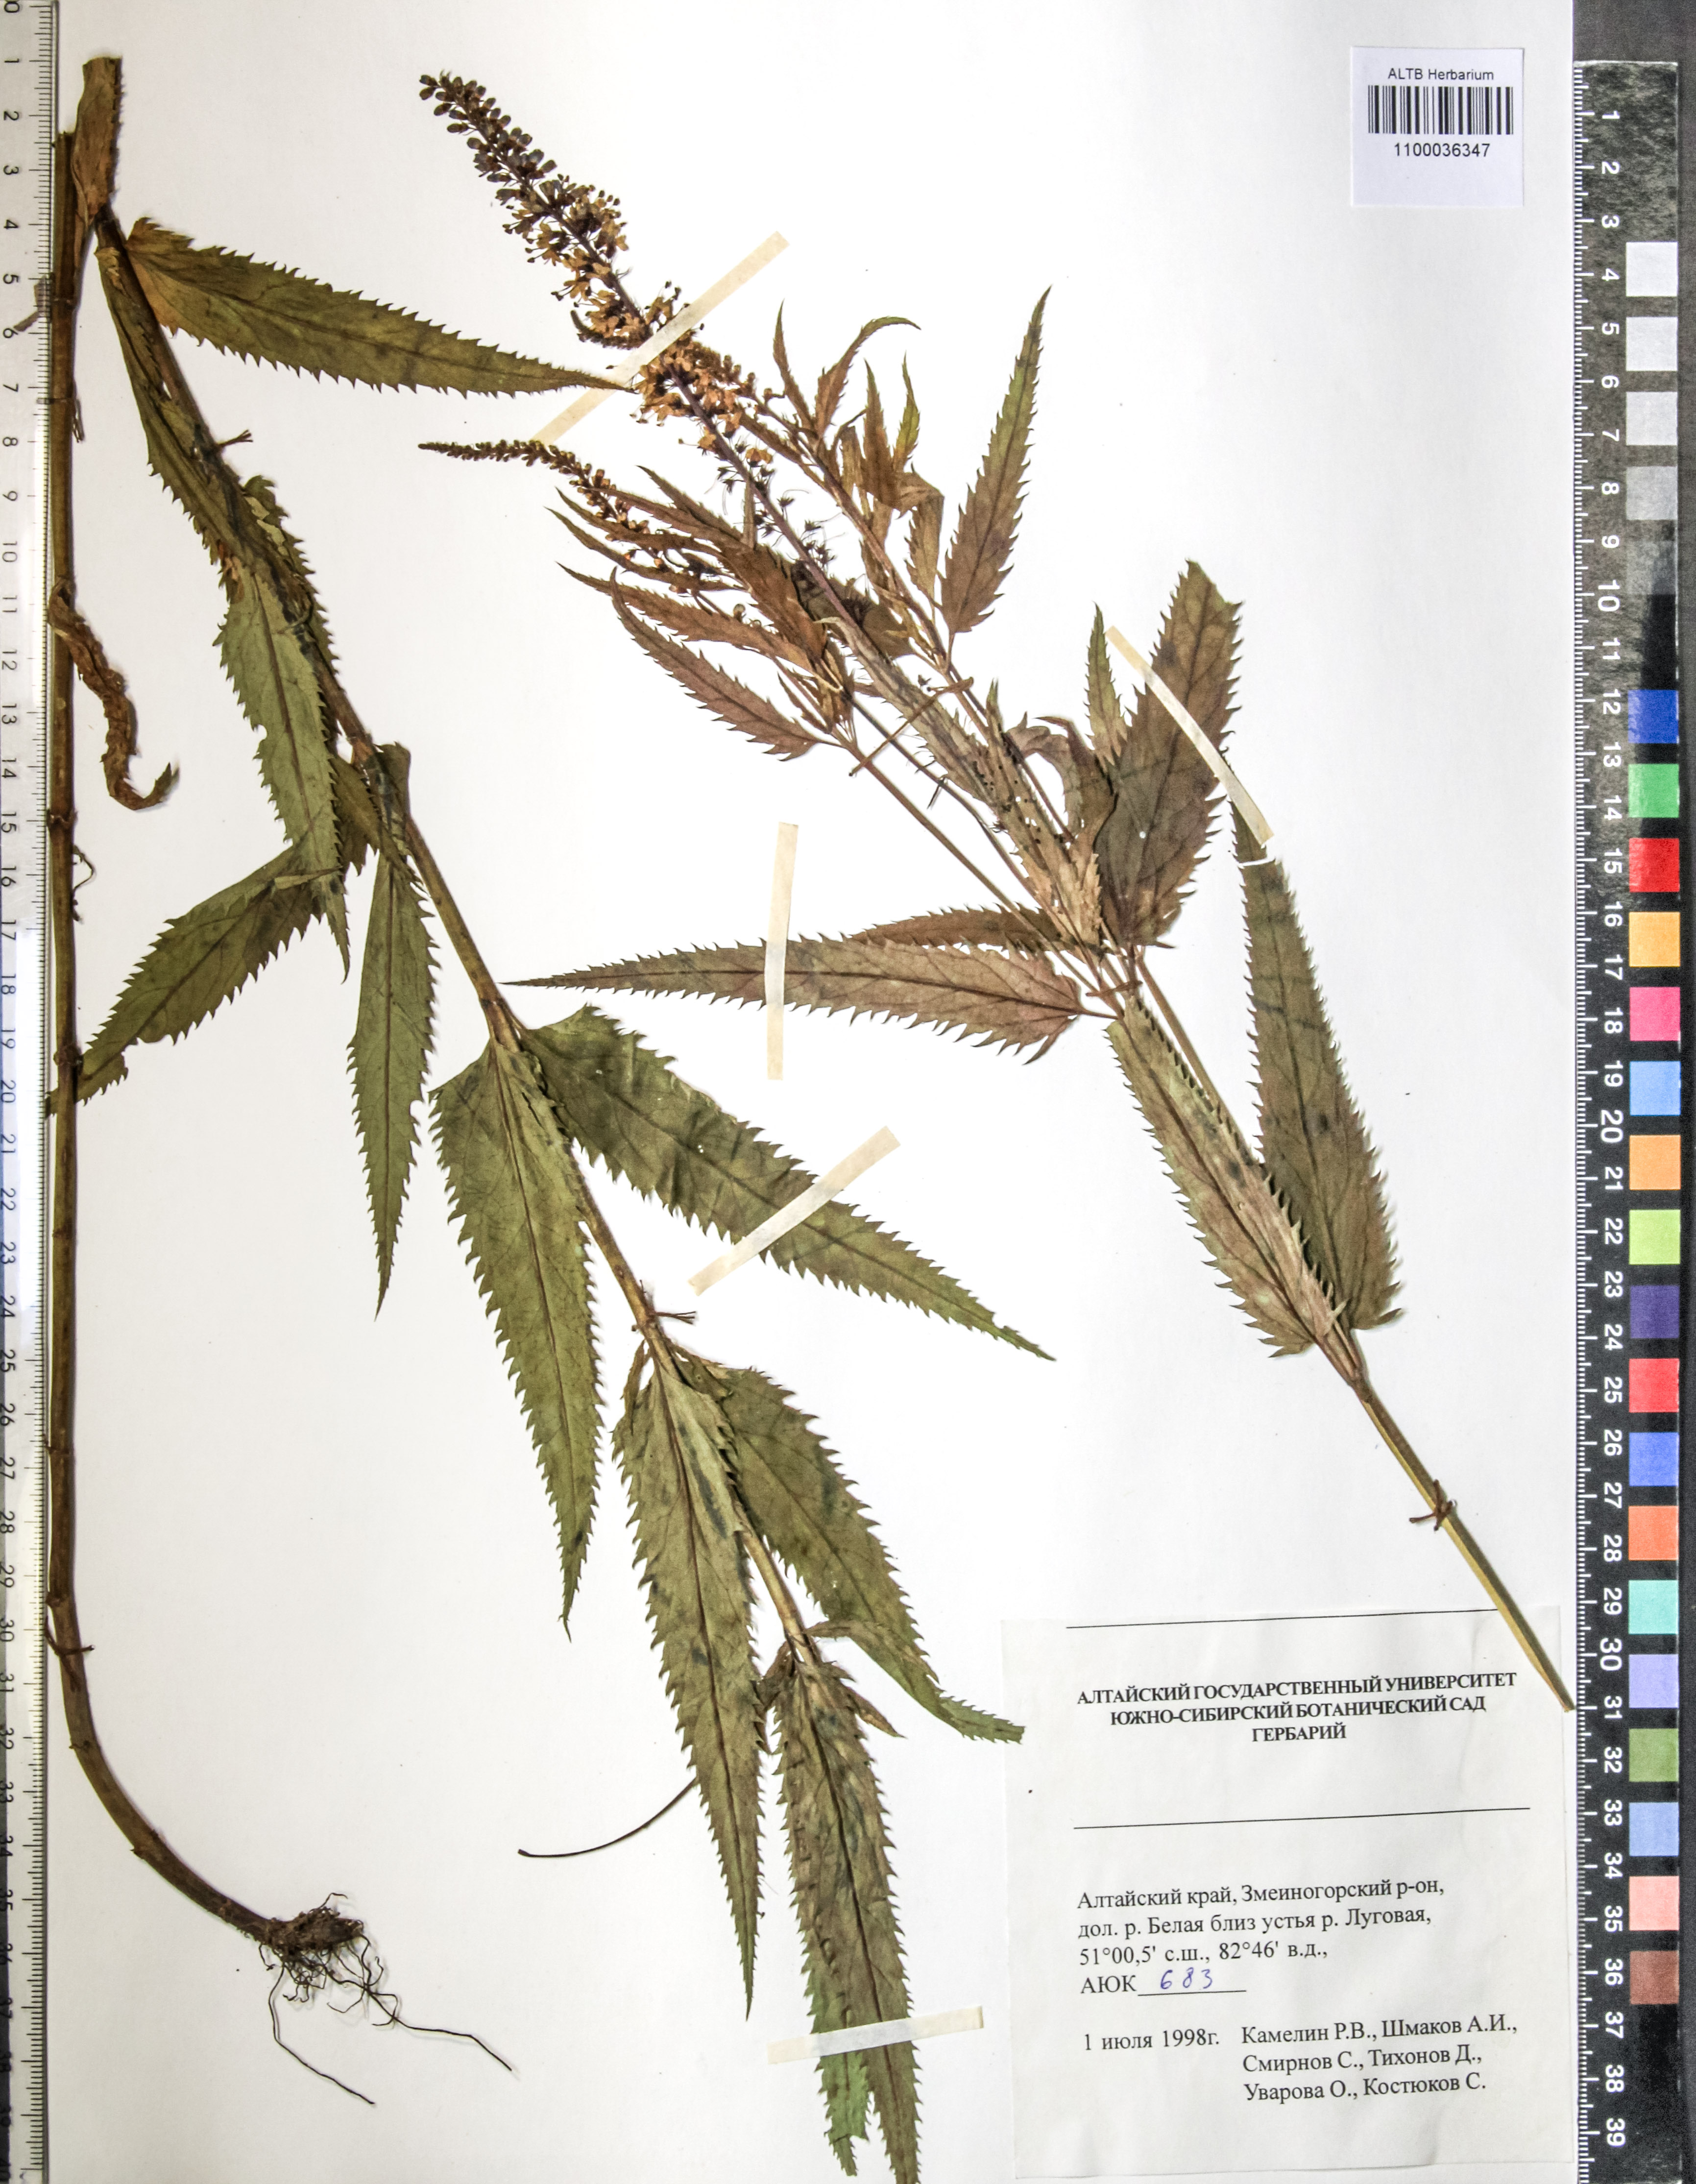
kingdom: Plantae
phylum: Tracheophyta
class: Magnoliopsida
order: Lamiales
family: Plantaginaceae
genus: Veronica
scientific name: Veronica longifolia
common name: Garden speedwell
